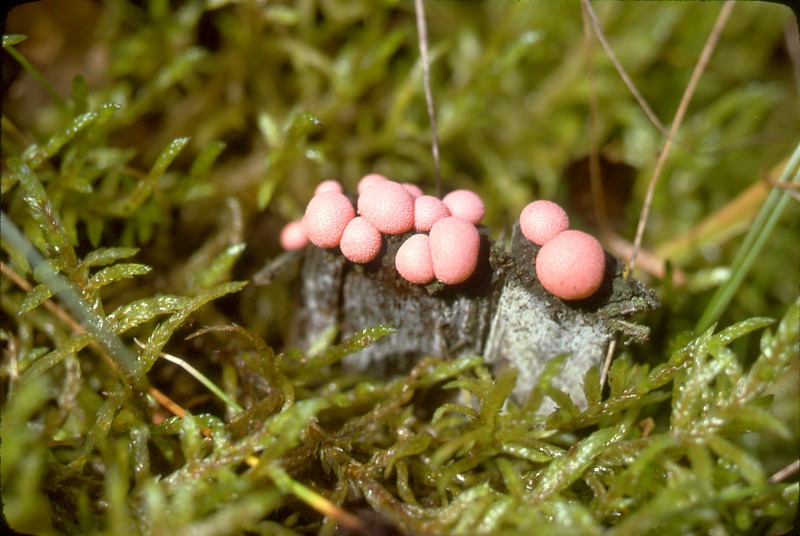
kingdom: Plantae
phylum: Tracheophyta
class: Pinopsida
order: Pinales
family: Pinaceae
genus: Pinus
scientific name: Pinus sylvestris
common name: Scots pine
